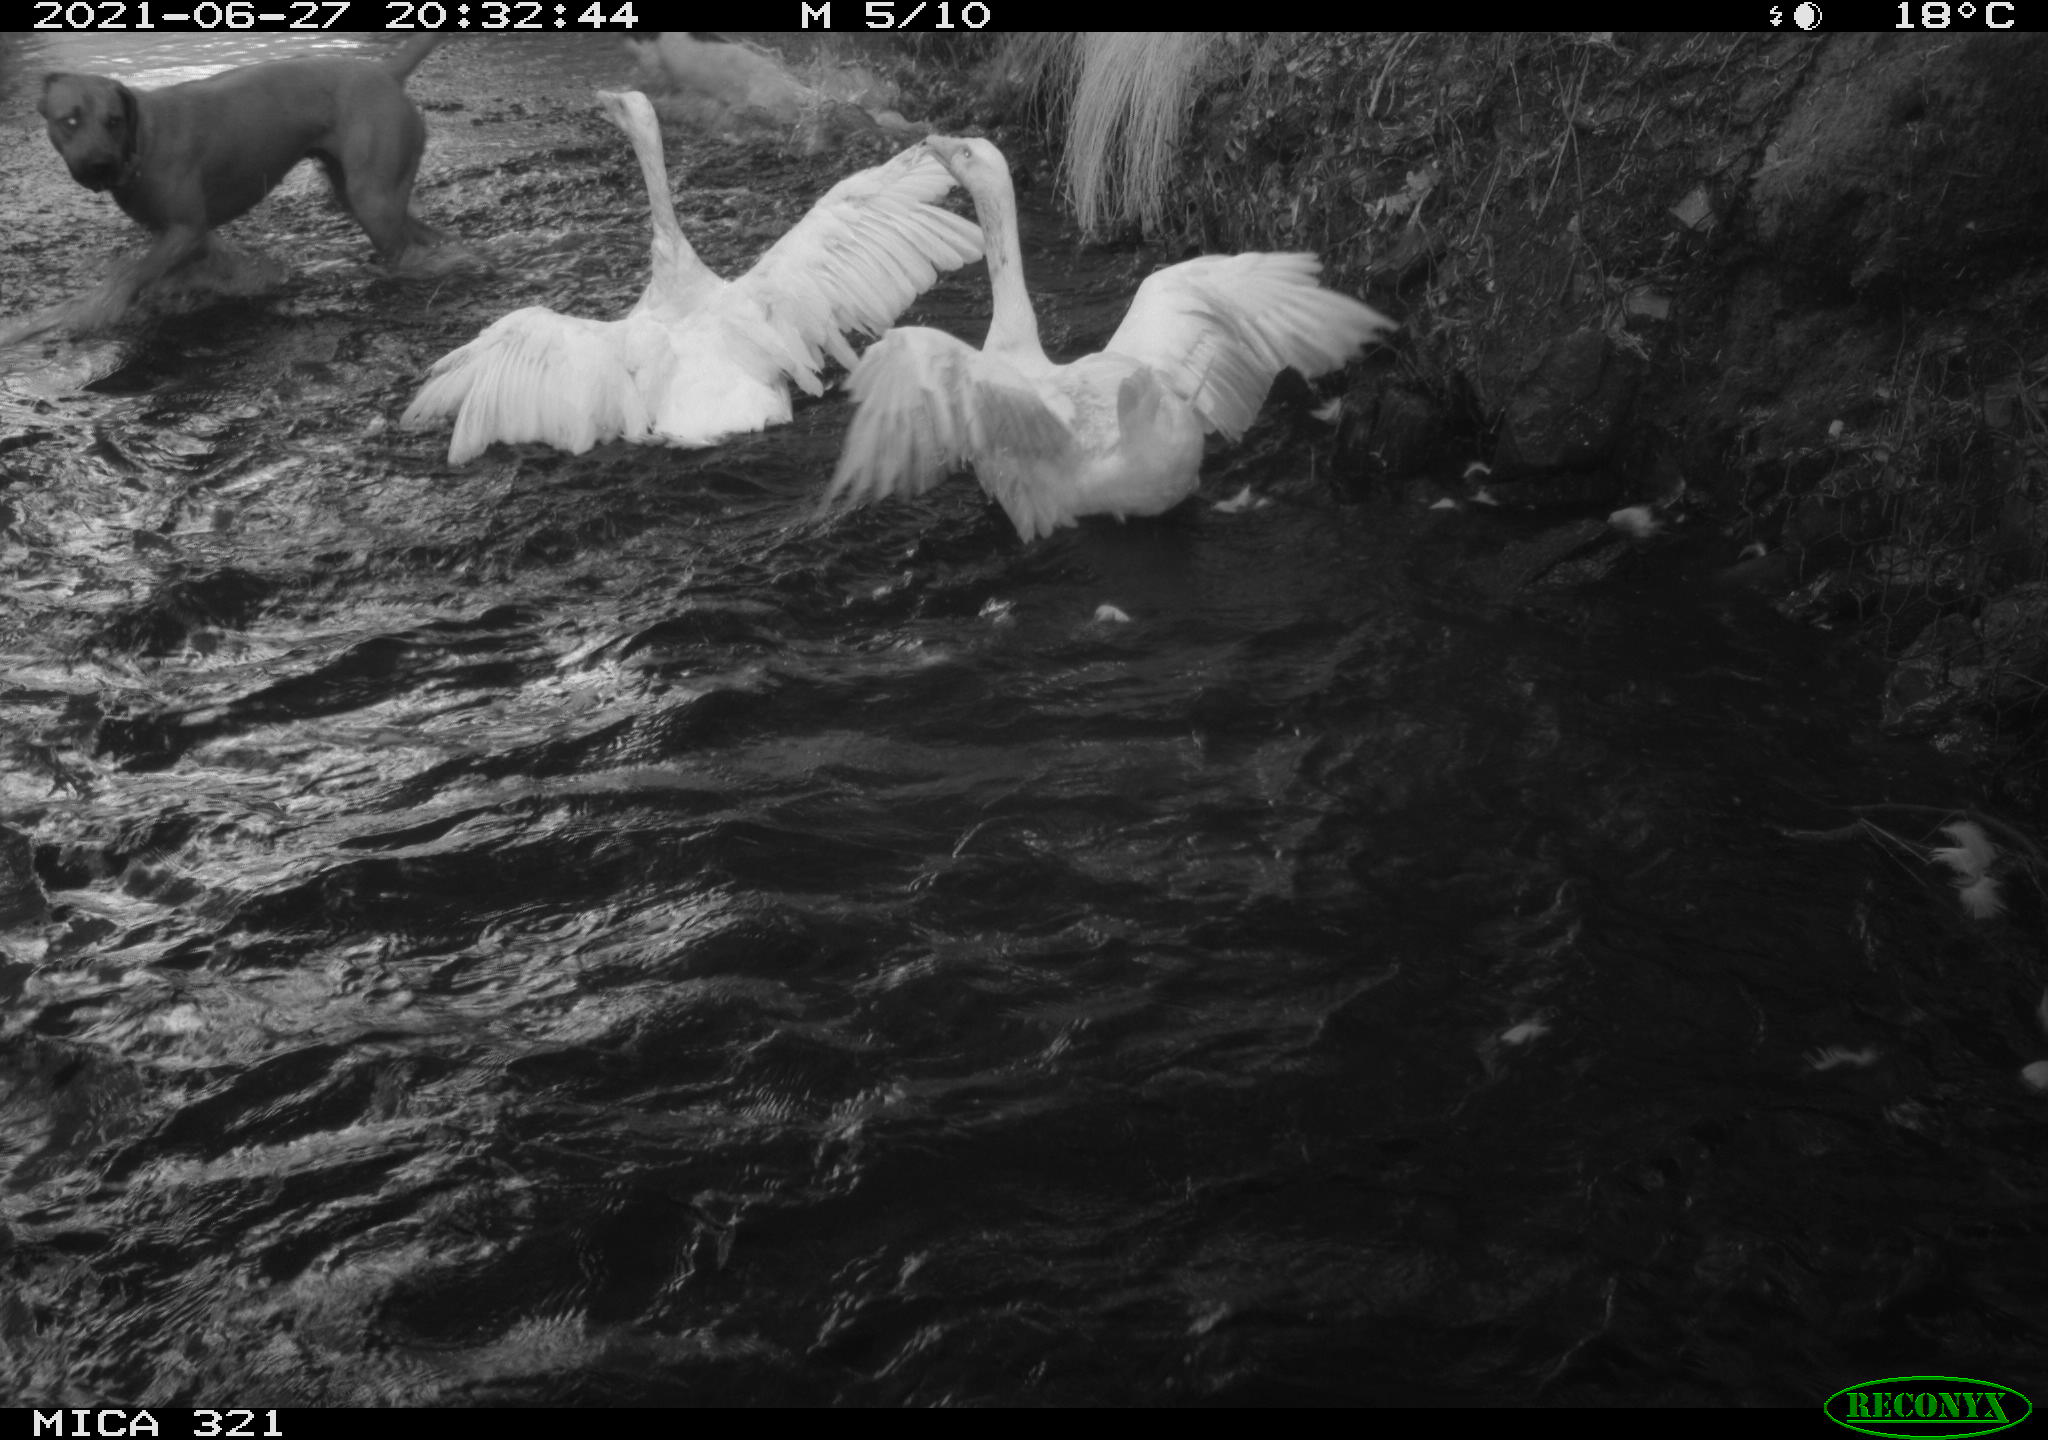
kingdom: Animalia
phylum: Chordata
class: Aves
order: Anseriformes
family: Anatidae
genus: Anser
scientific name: Anser anser
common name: Greylag goose
